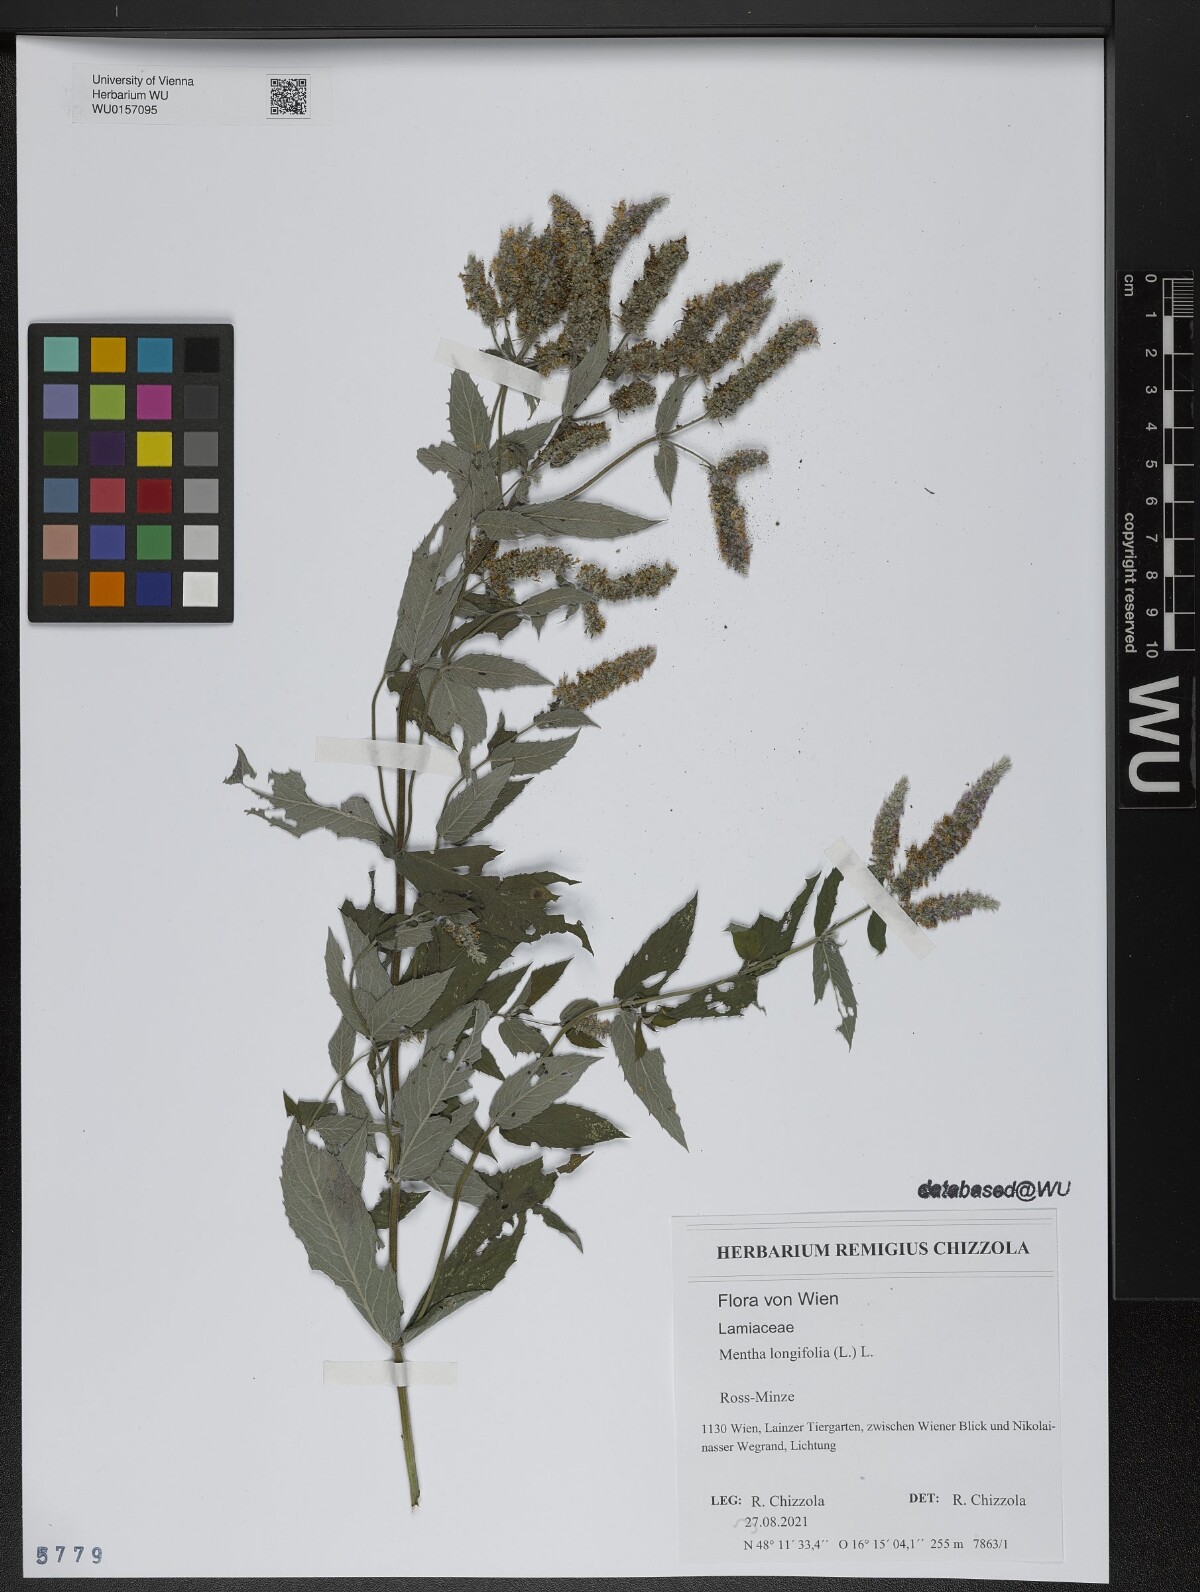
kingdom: Plantae
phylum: Tracheophyta
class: Magnoliopsida
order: Lamiales
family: Lamiaceae
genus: Mentha
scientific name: Mentha longifolia
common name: Horse mint
